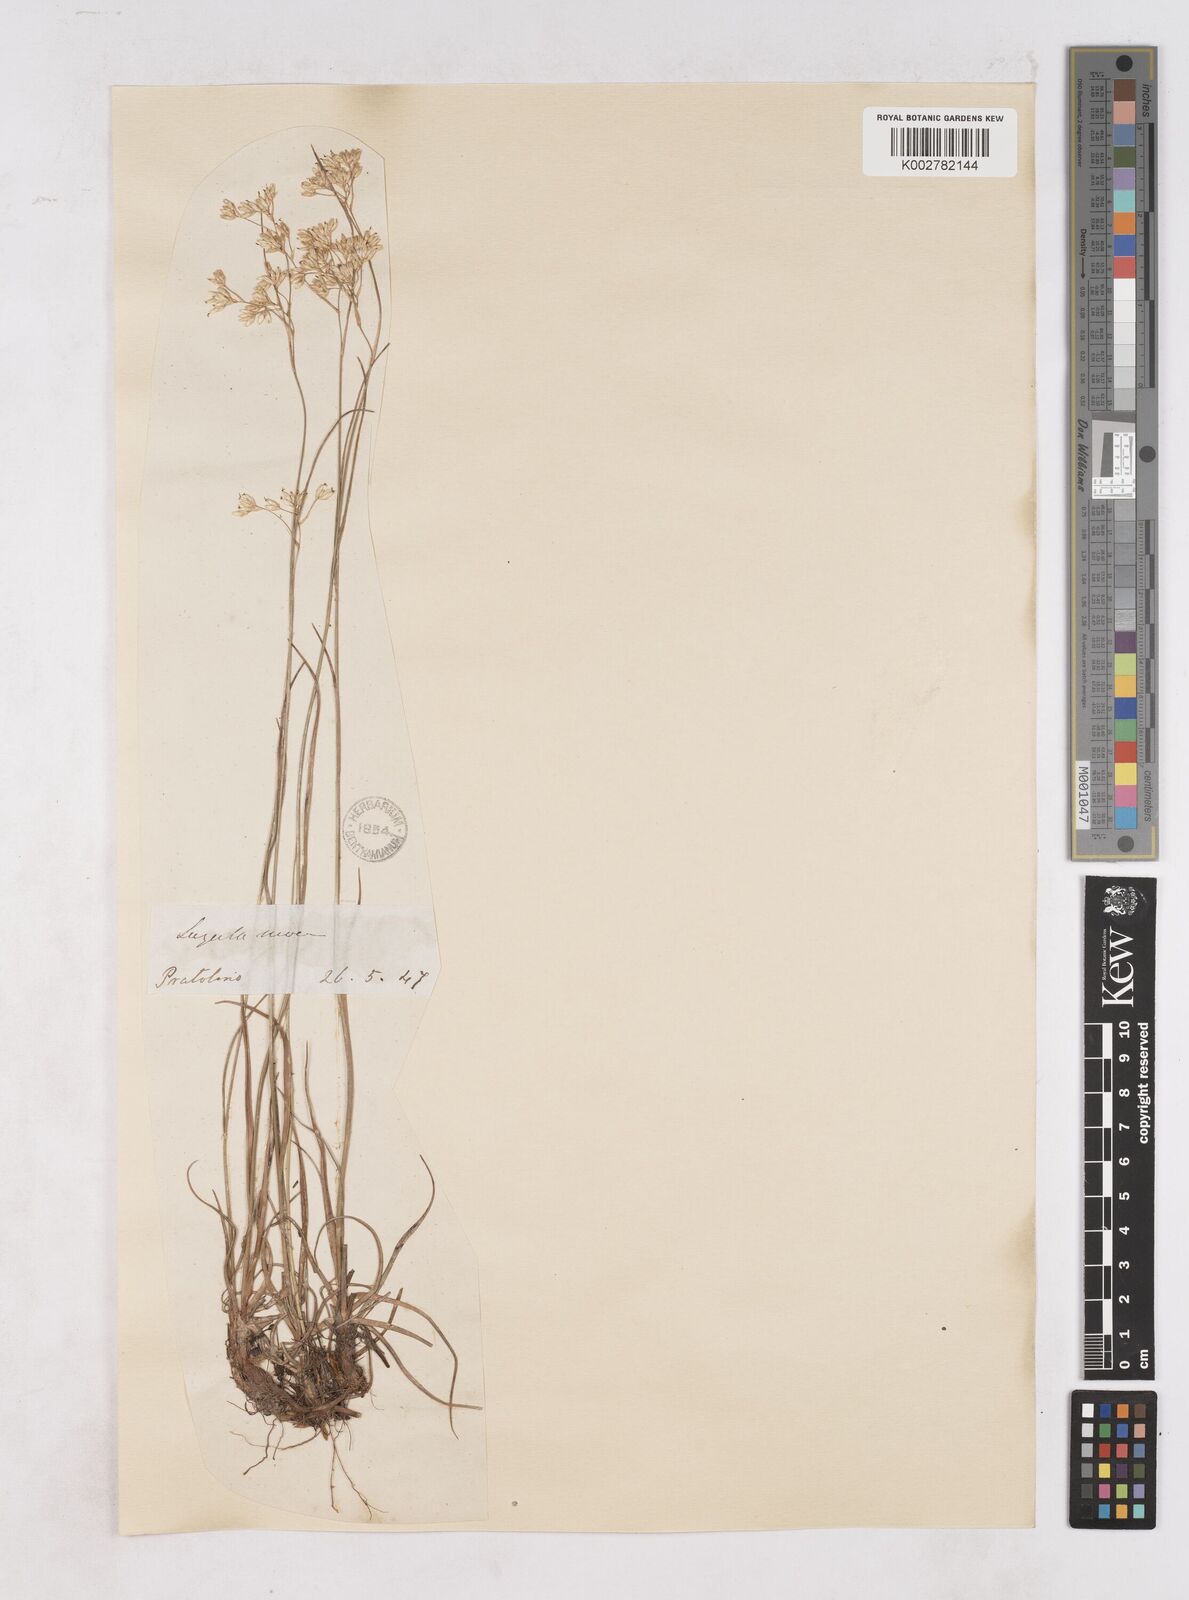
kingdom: Plantae
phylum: Tracheophyta
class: Liliopsida
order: Poales
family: Juncaceae
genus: Luzula
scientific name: Luzula nivea
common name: Snow-white wood-rush
